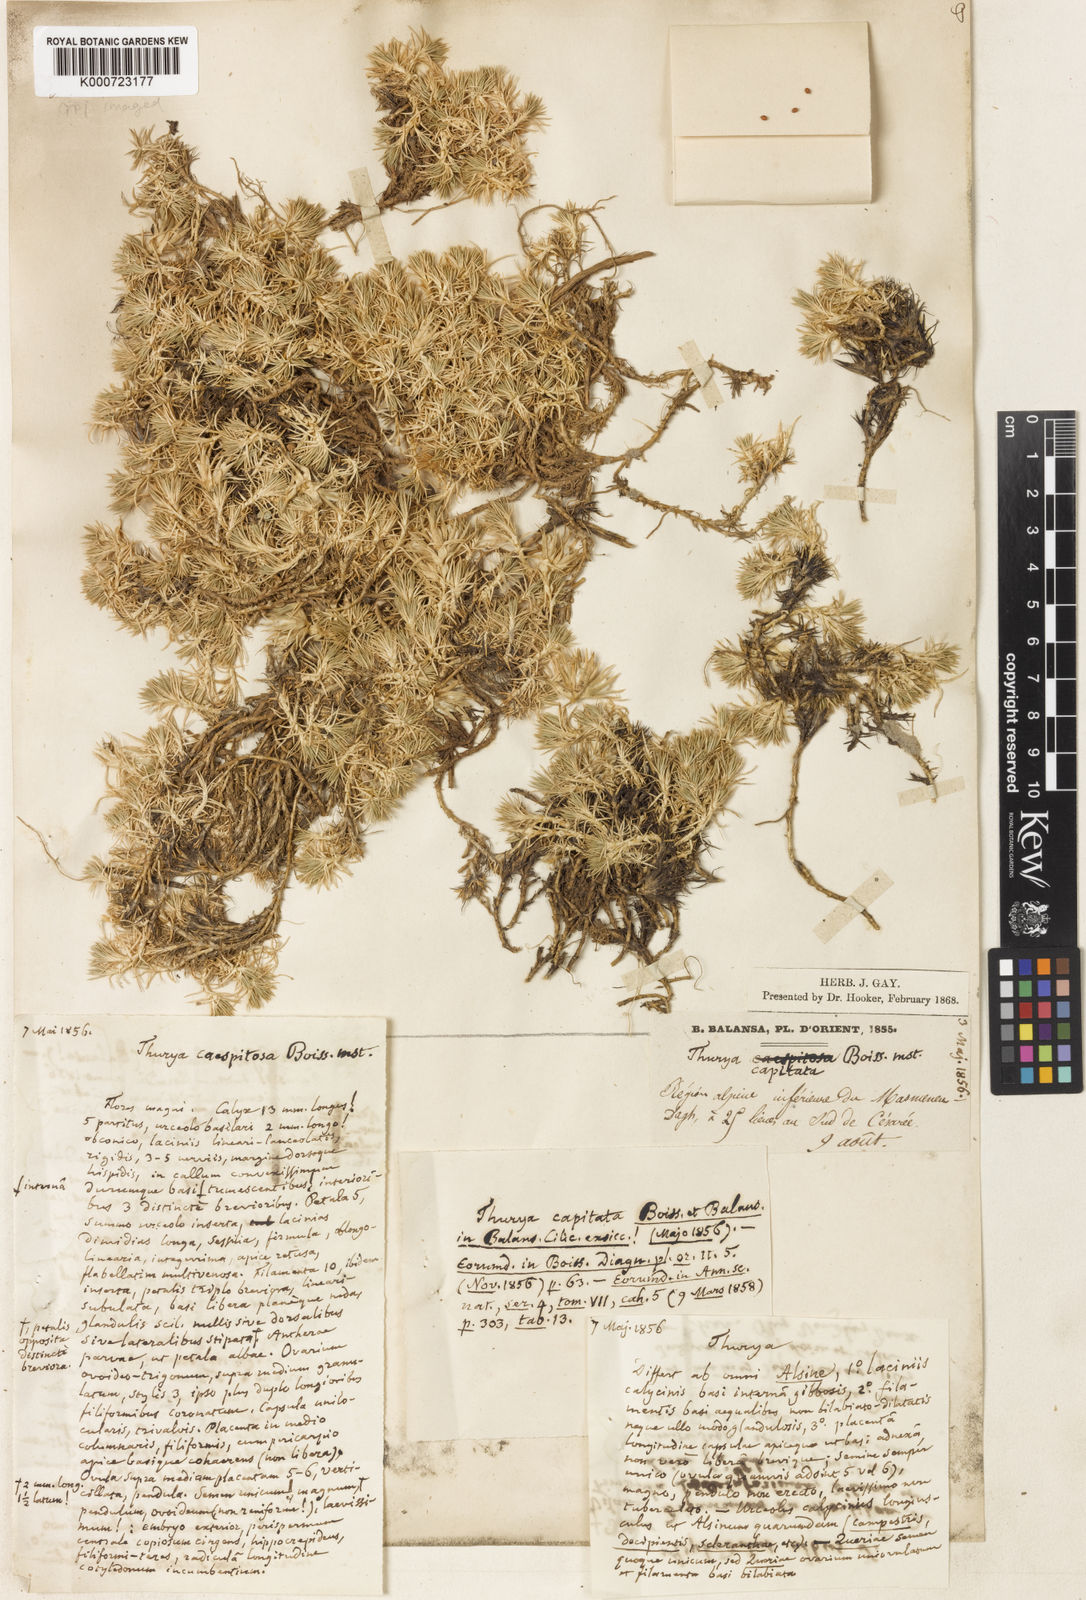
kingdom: Plantae
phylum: Tracheophyta
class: Magnoliopsida
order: Caryophyllales
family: Caryophyllaceae
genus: Thurya
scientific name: Thurya capitata
